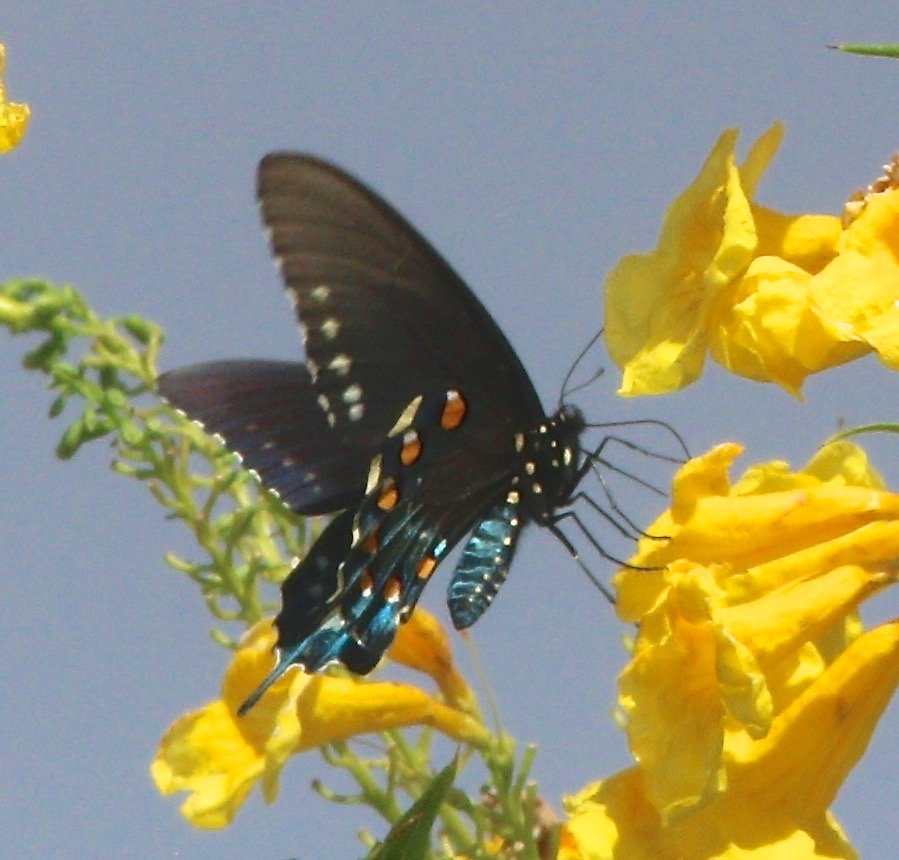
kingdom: Animalia
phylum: Arthropoda
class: Insecta
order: Lepidoptera
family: Papilionidae
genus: Battus
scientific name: Battus philenor
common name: Pipevine Swallowtail
